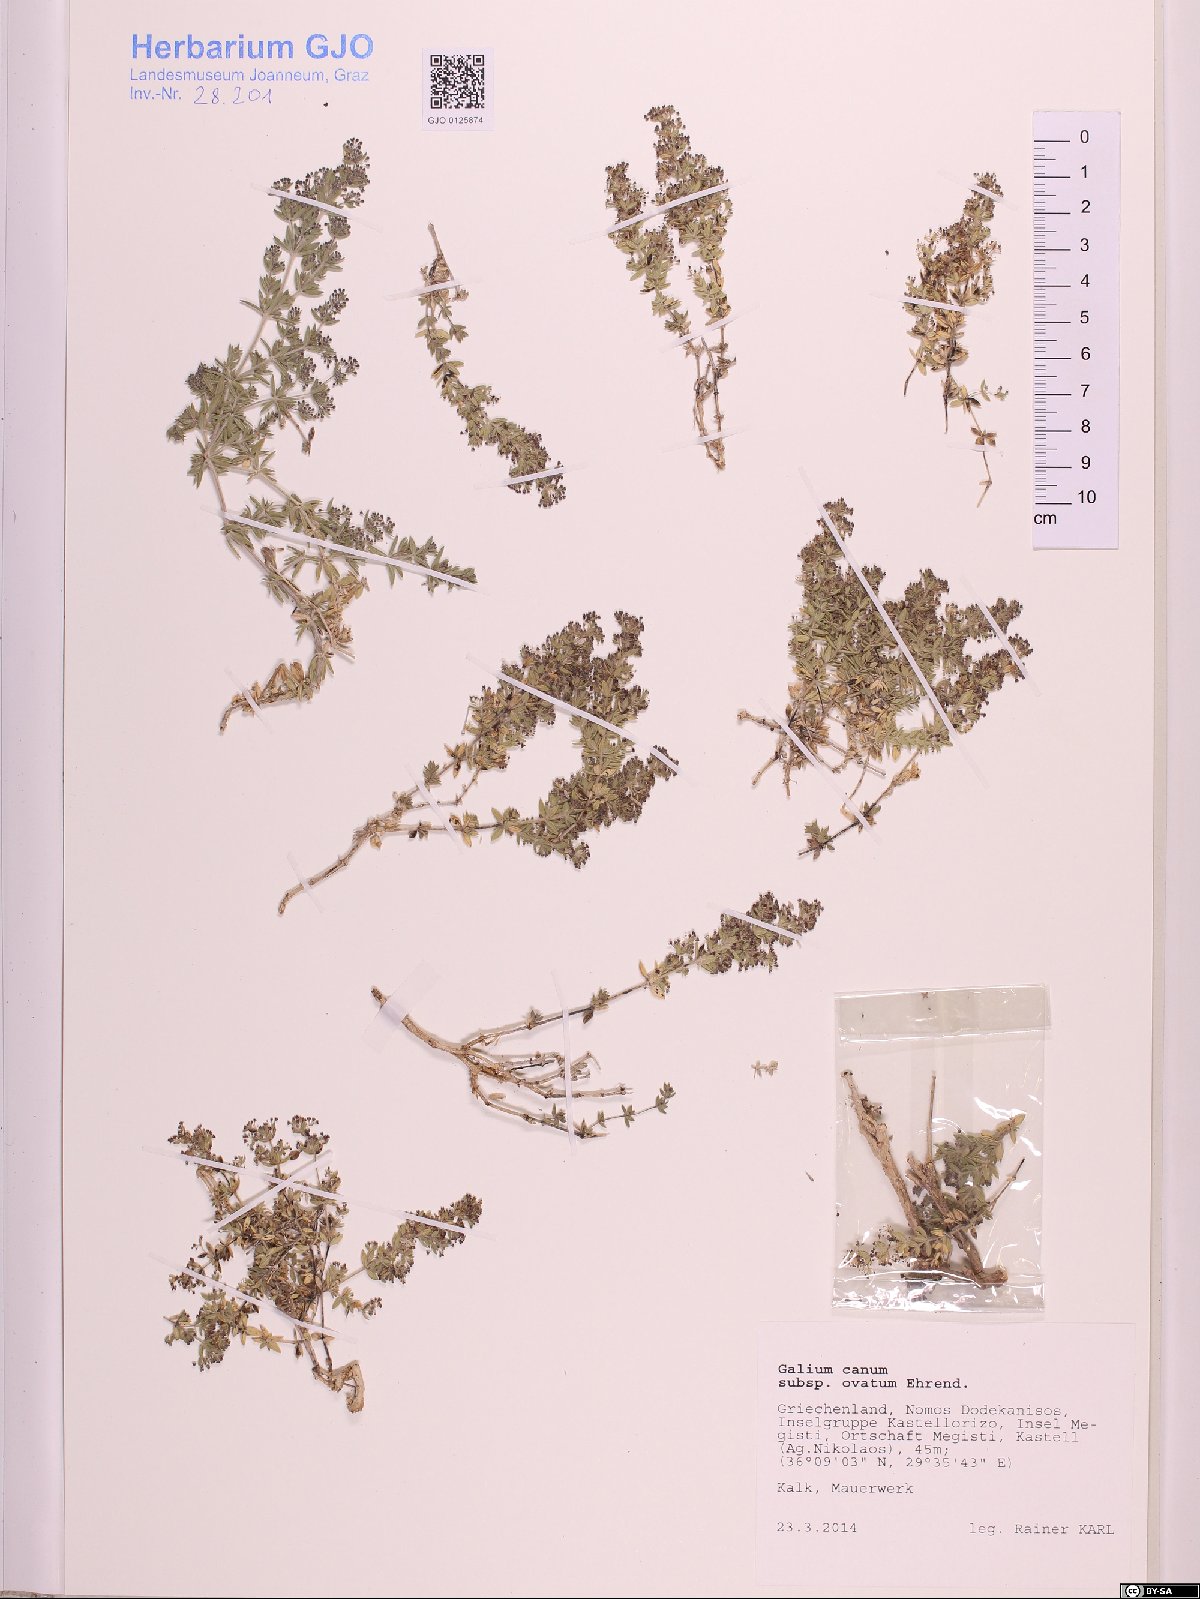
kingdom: Plantae
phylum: Tracheophyta
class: Magnoliopsida
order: Gentianales
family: Rubiaceae
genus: Galium
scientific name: Galium canum
